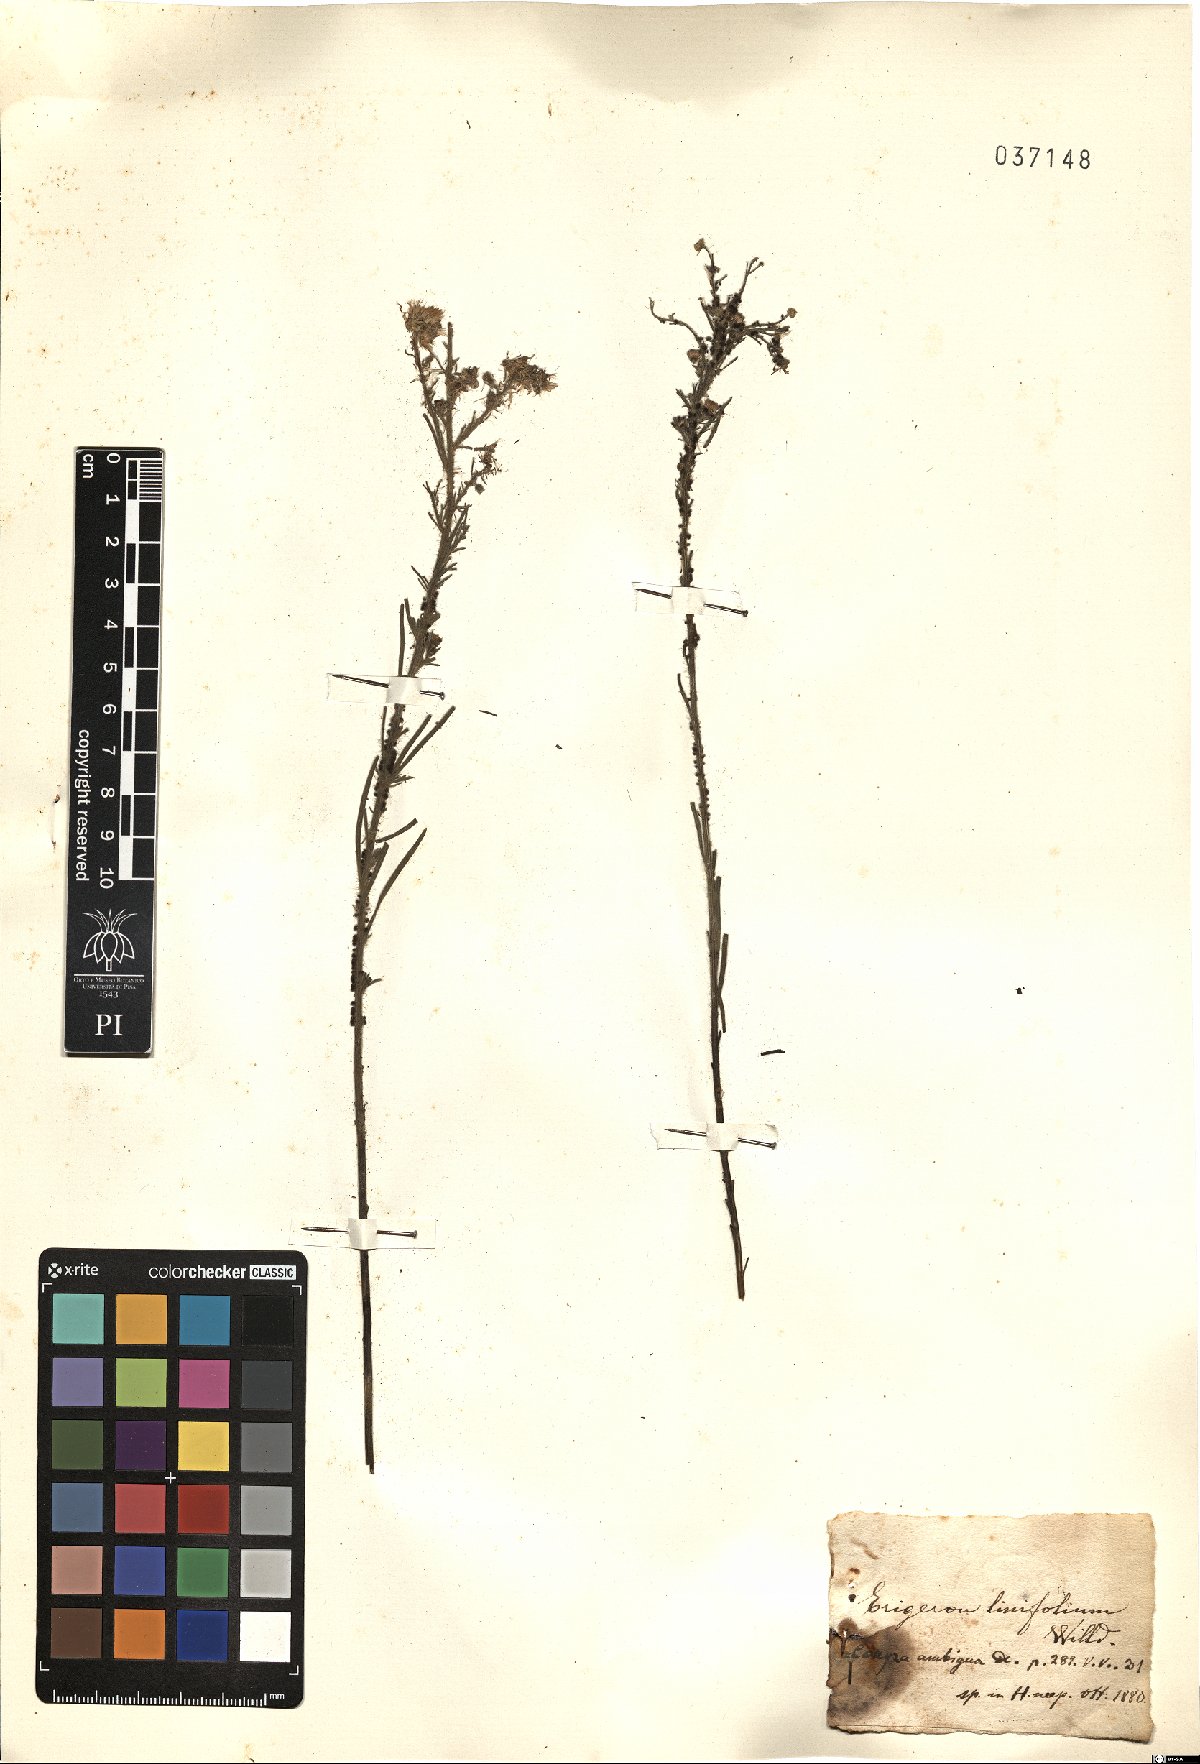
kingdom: Plantae
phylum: Tracheophyta
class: Magnoliopsida
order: Asterales
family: Asteraceae
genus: Erigeron
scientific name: Erigeron sumatrensis
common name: Daisy
